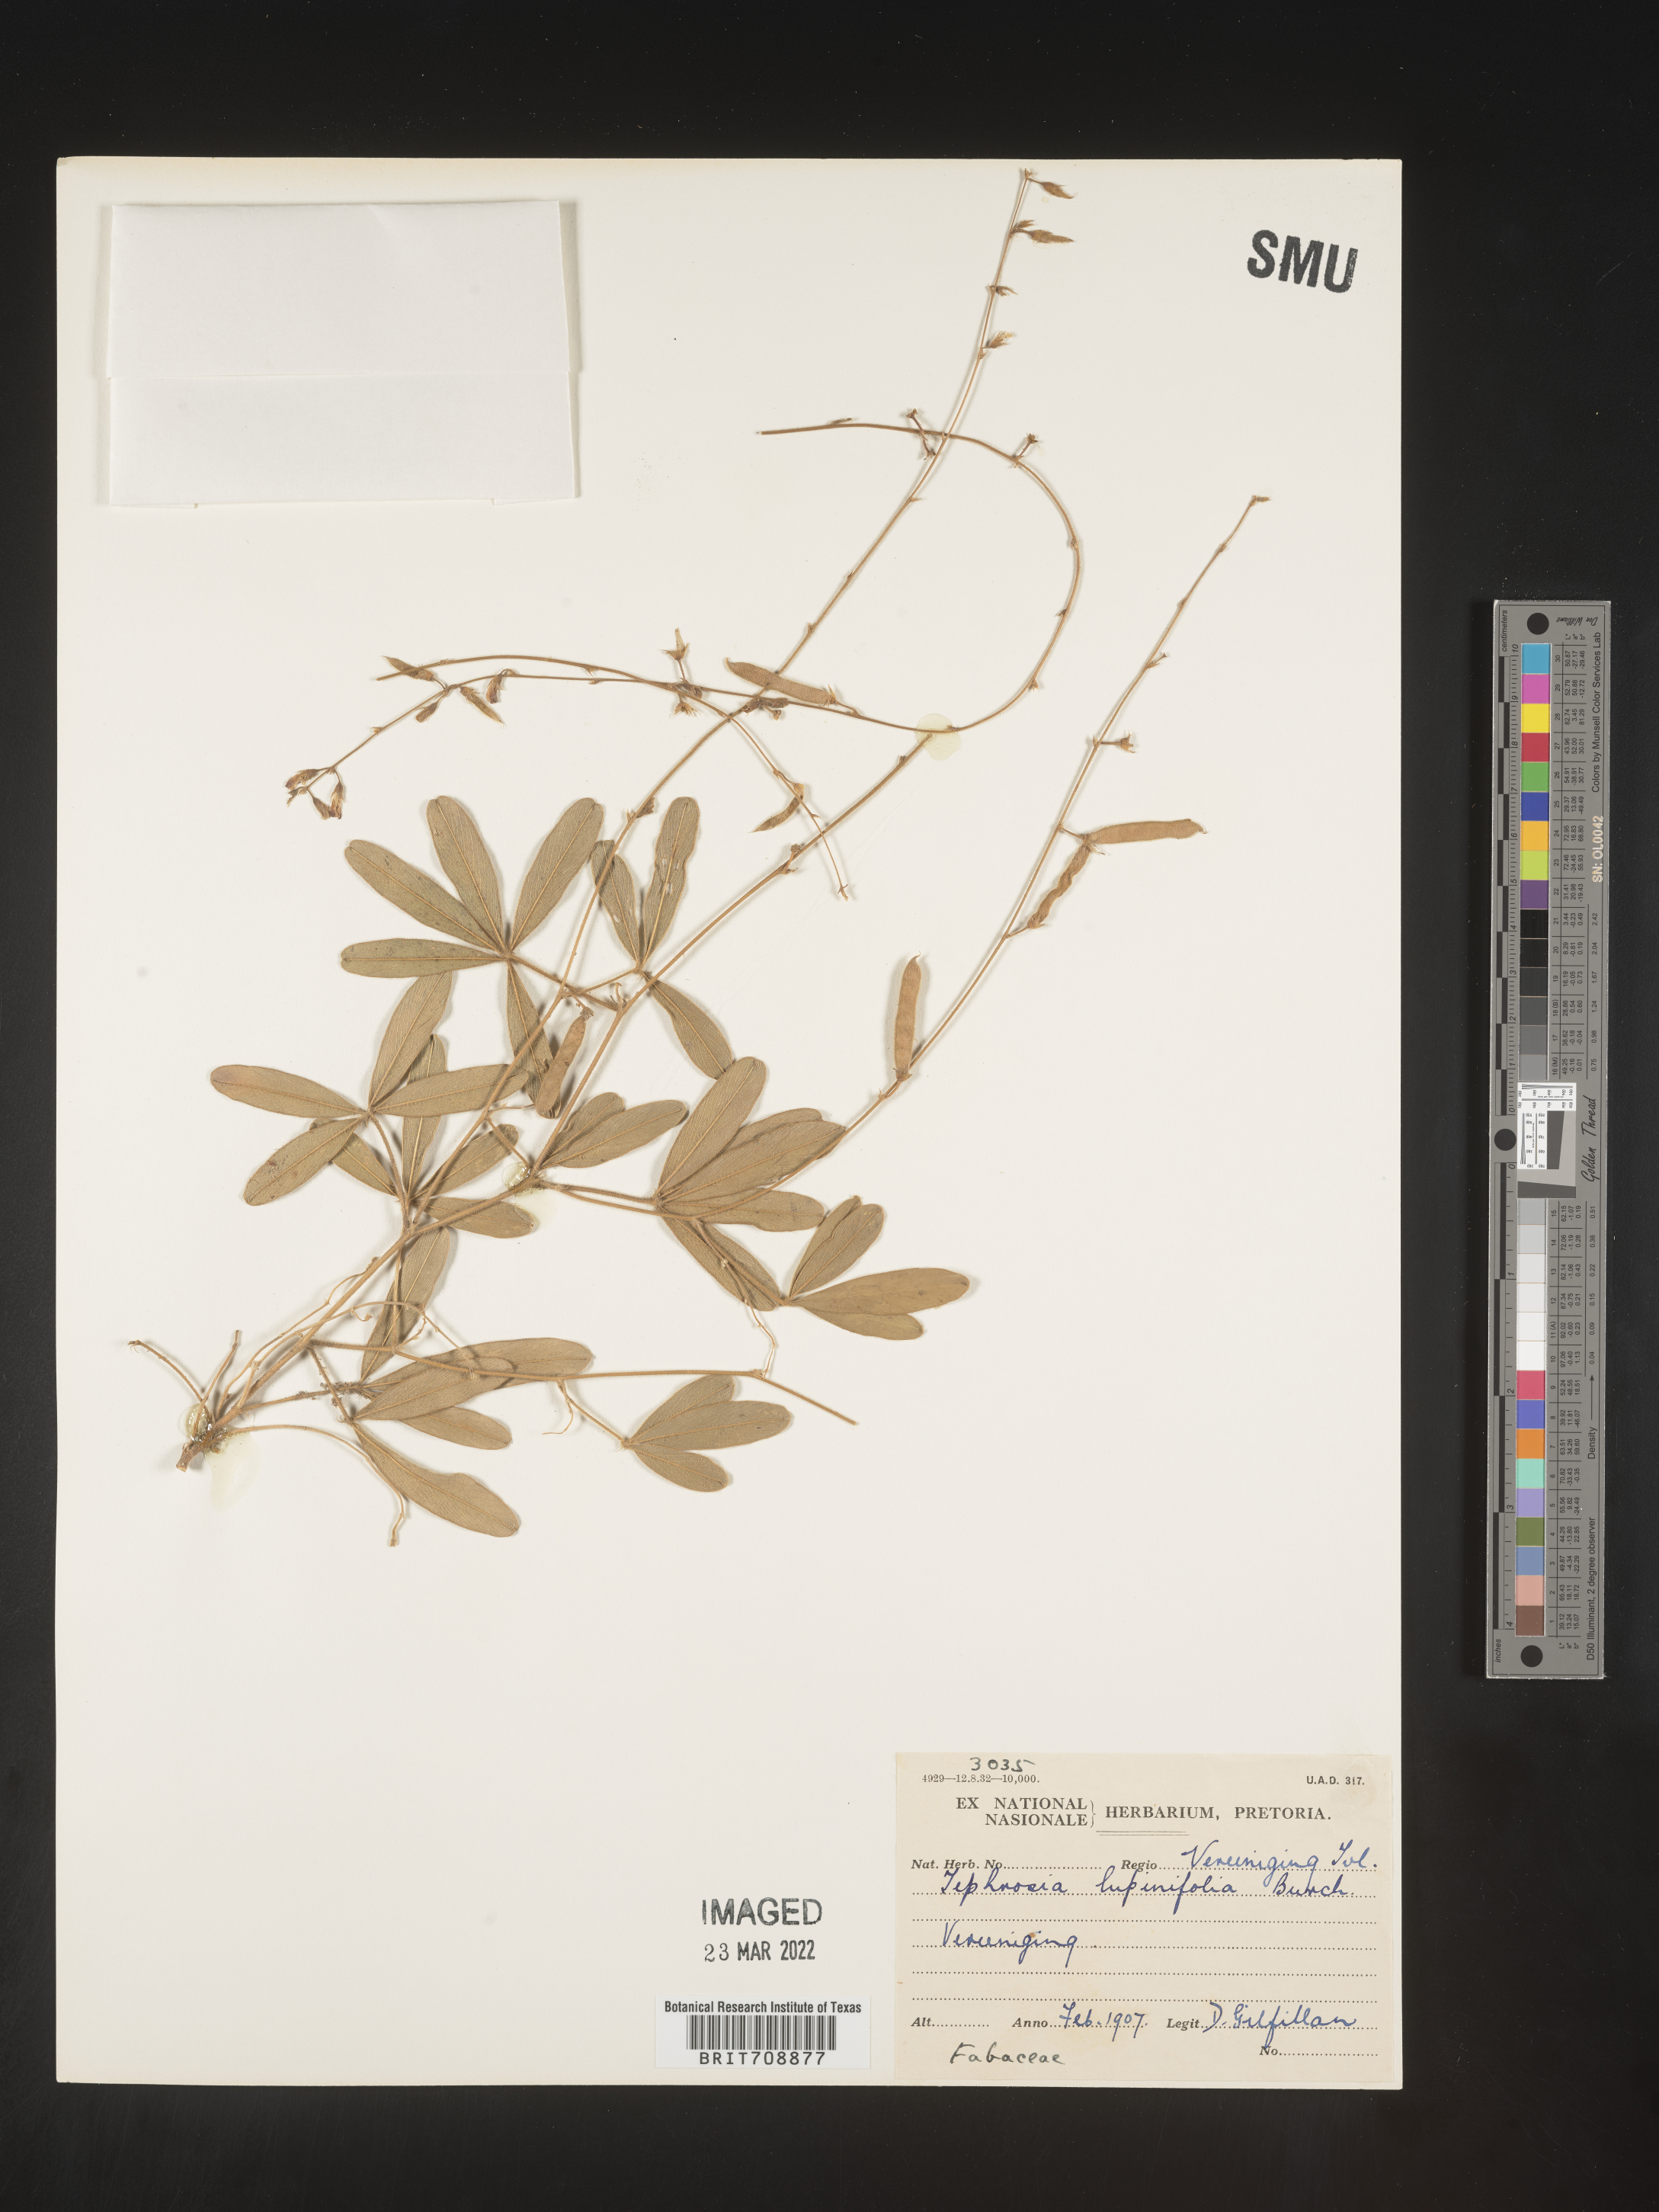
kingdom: Plantae
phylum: Tracheophyta
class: Magnoliopsida
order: Fabales
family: Fabaceae
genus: Tephrosia
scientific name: Tephrosia
